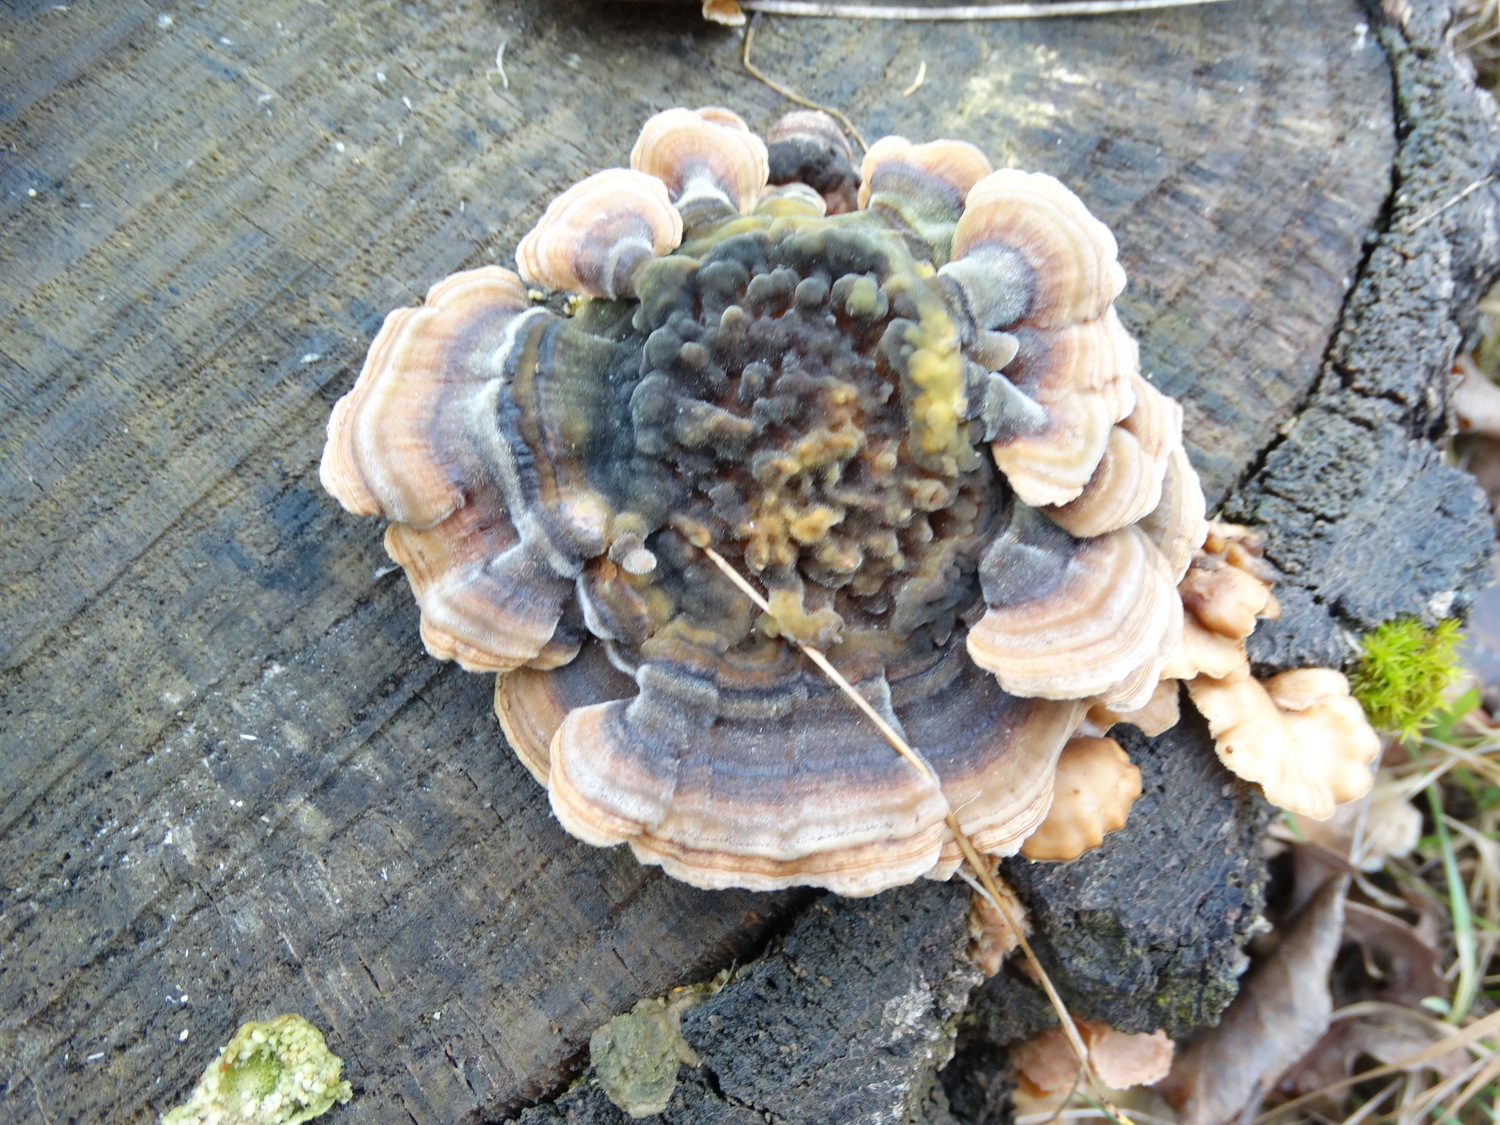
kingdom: Fungi
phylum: Basidiomycota
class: Agaricomycetes
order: Polyporales
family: Polyporaceae
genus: Trametes
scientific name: Trametes versicolor
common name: broget læderporesvamp
